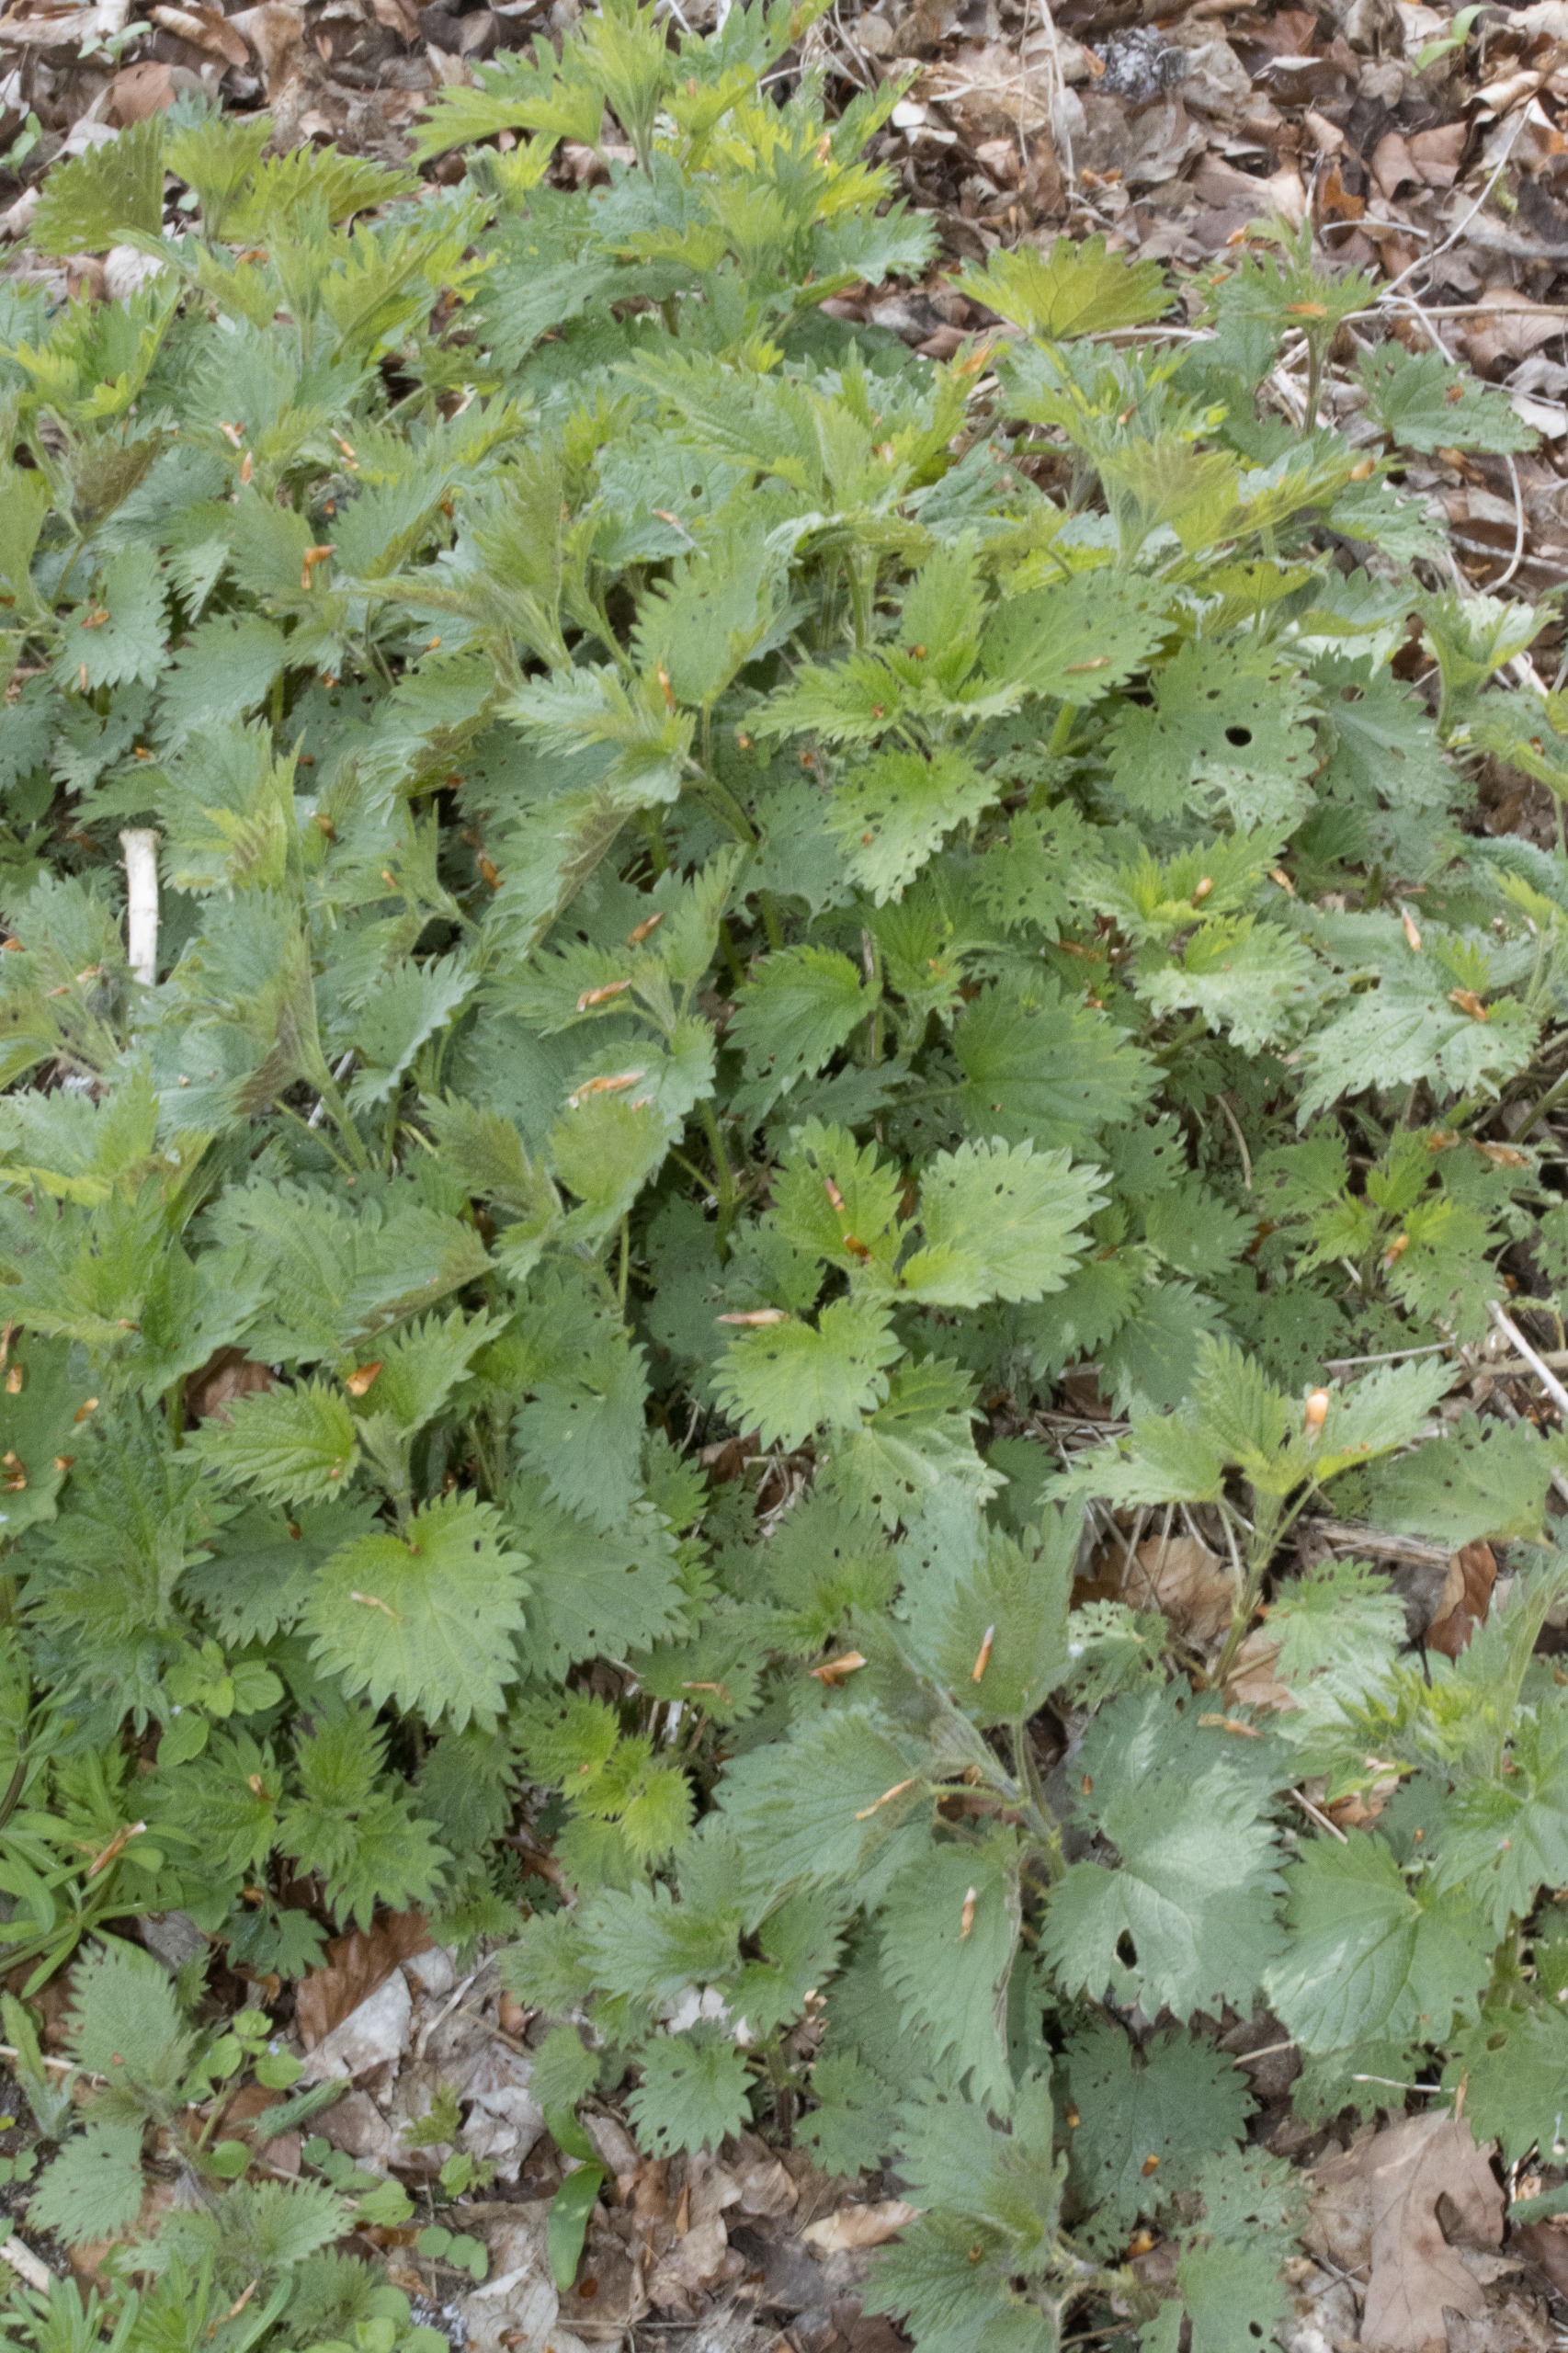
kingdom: Plantae
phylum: Tracheophyta
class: Magnoliopsida
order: Rosales
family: Urticaceae
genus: Urtica
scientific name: Urtica dioica
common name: Stor nælde
